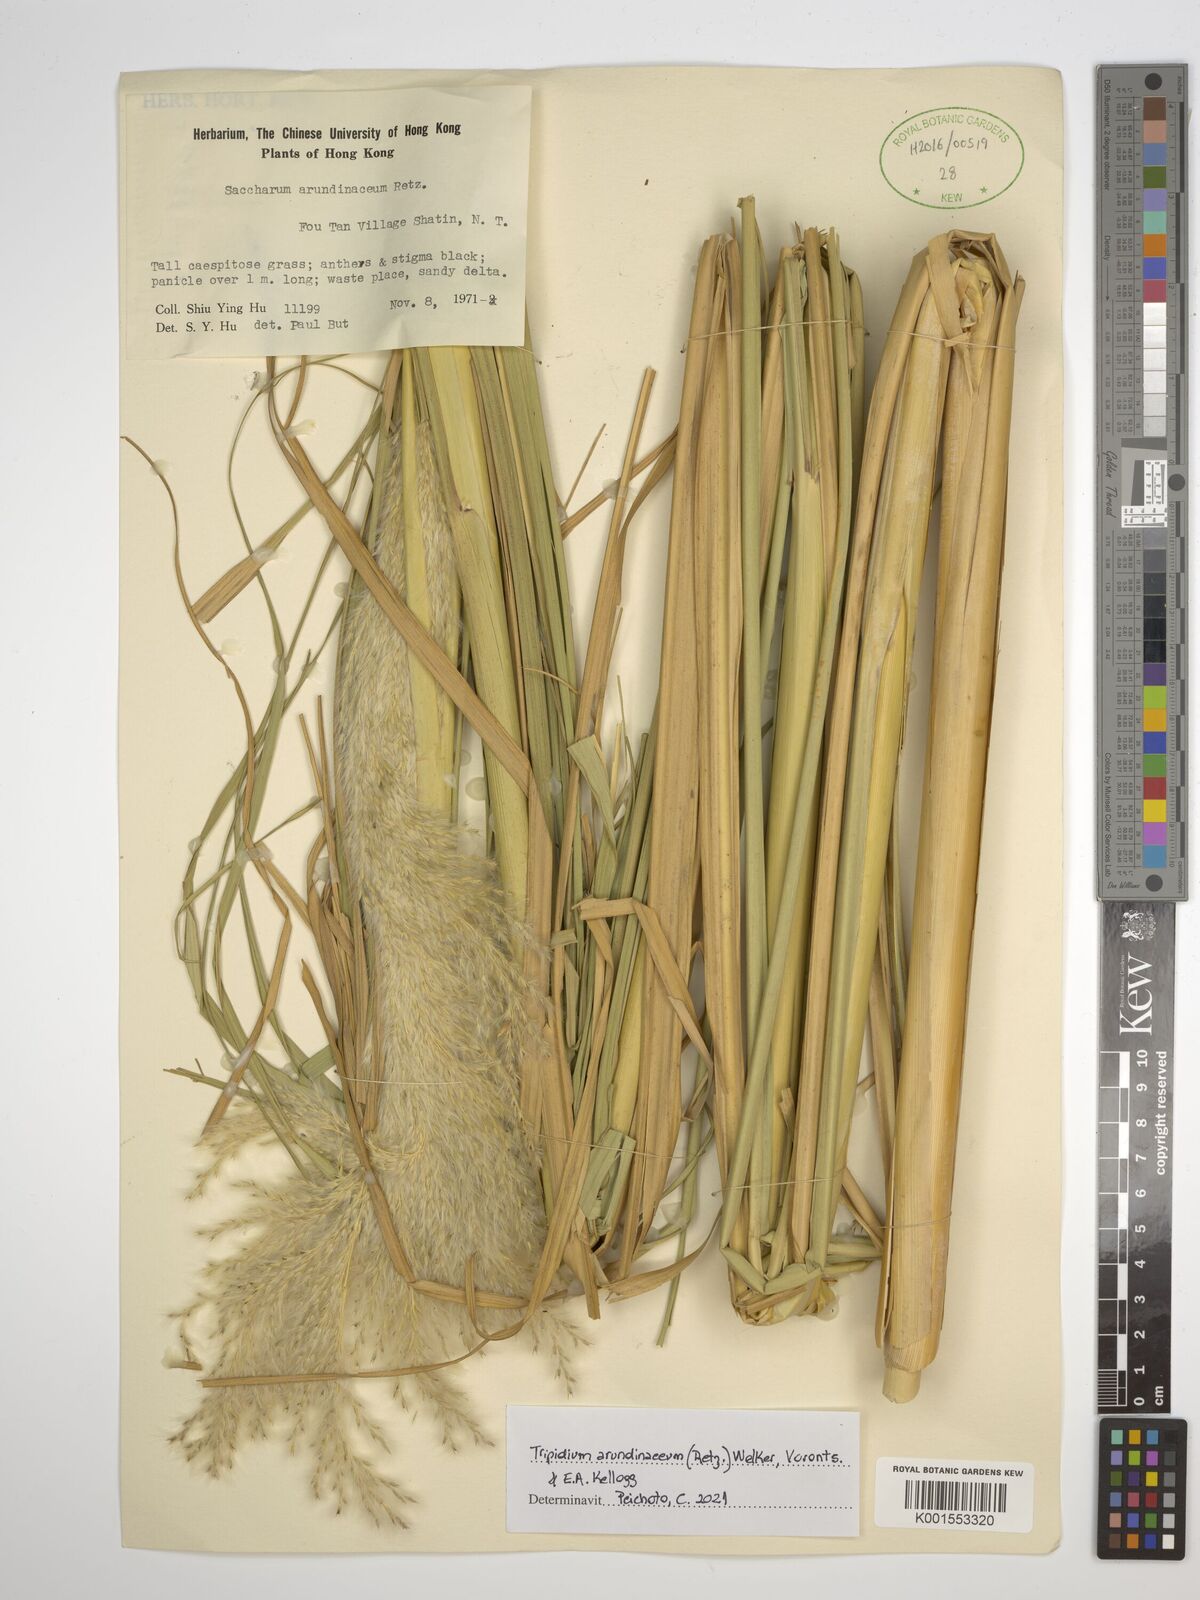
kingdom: Plantae
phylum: Tracheophyta
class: Liliopsida
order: Poales
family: Poaceae
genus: Tripidium
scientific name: Tripidium arundinaceum
